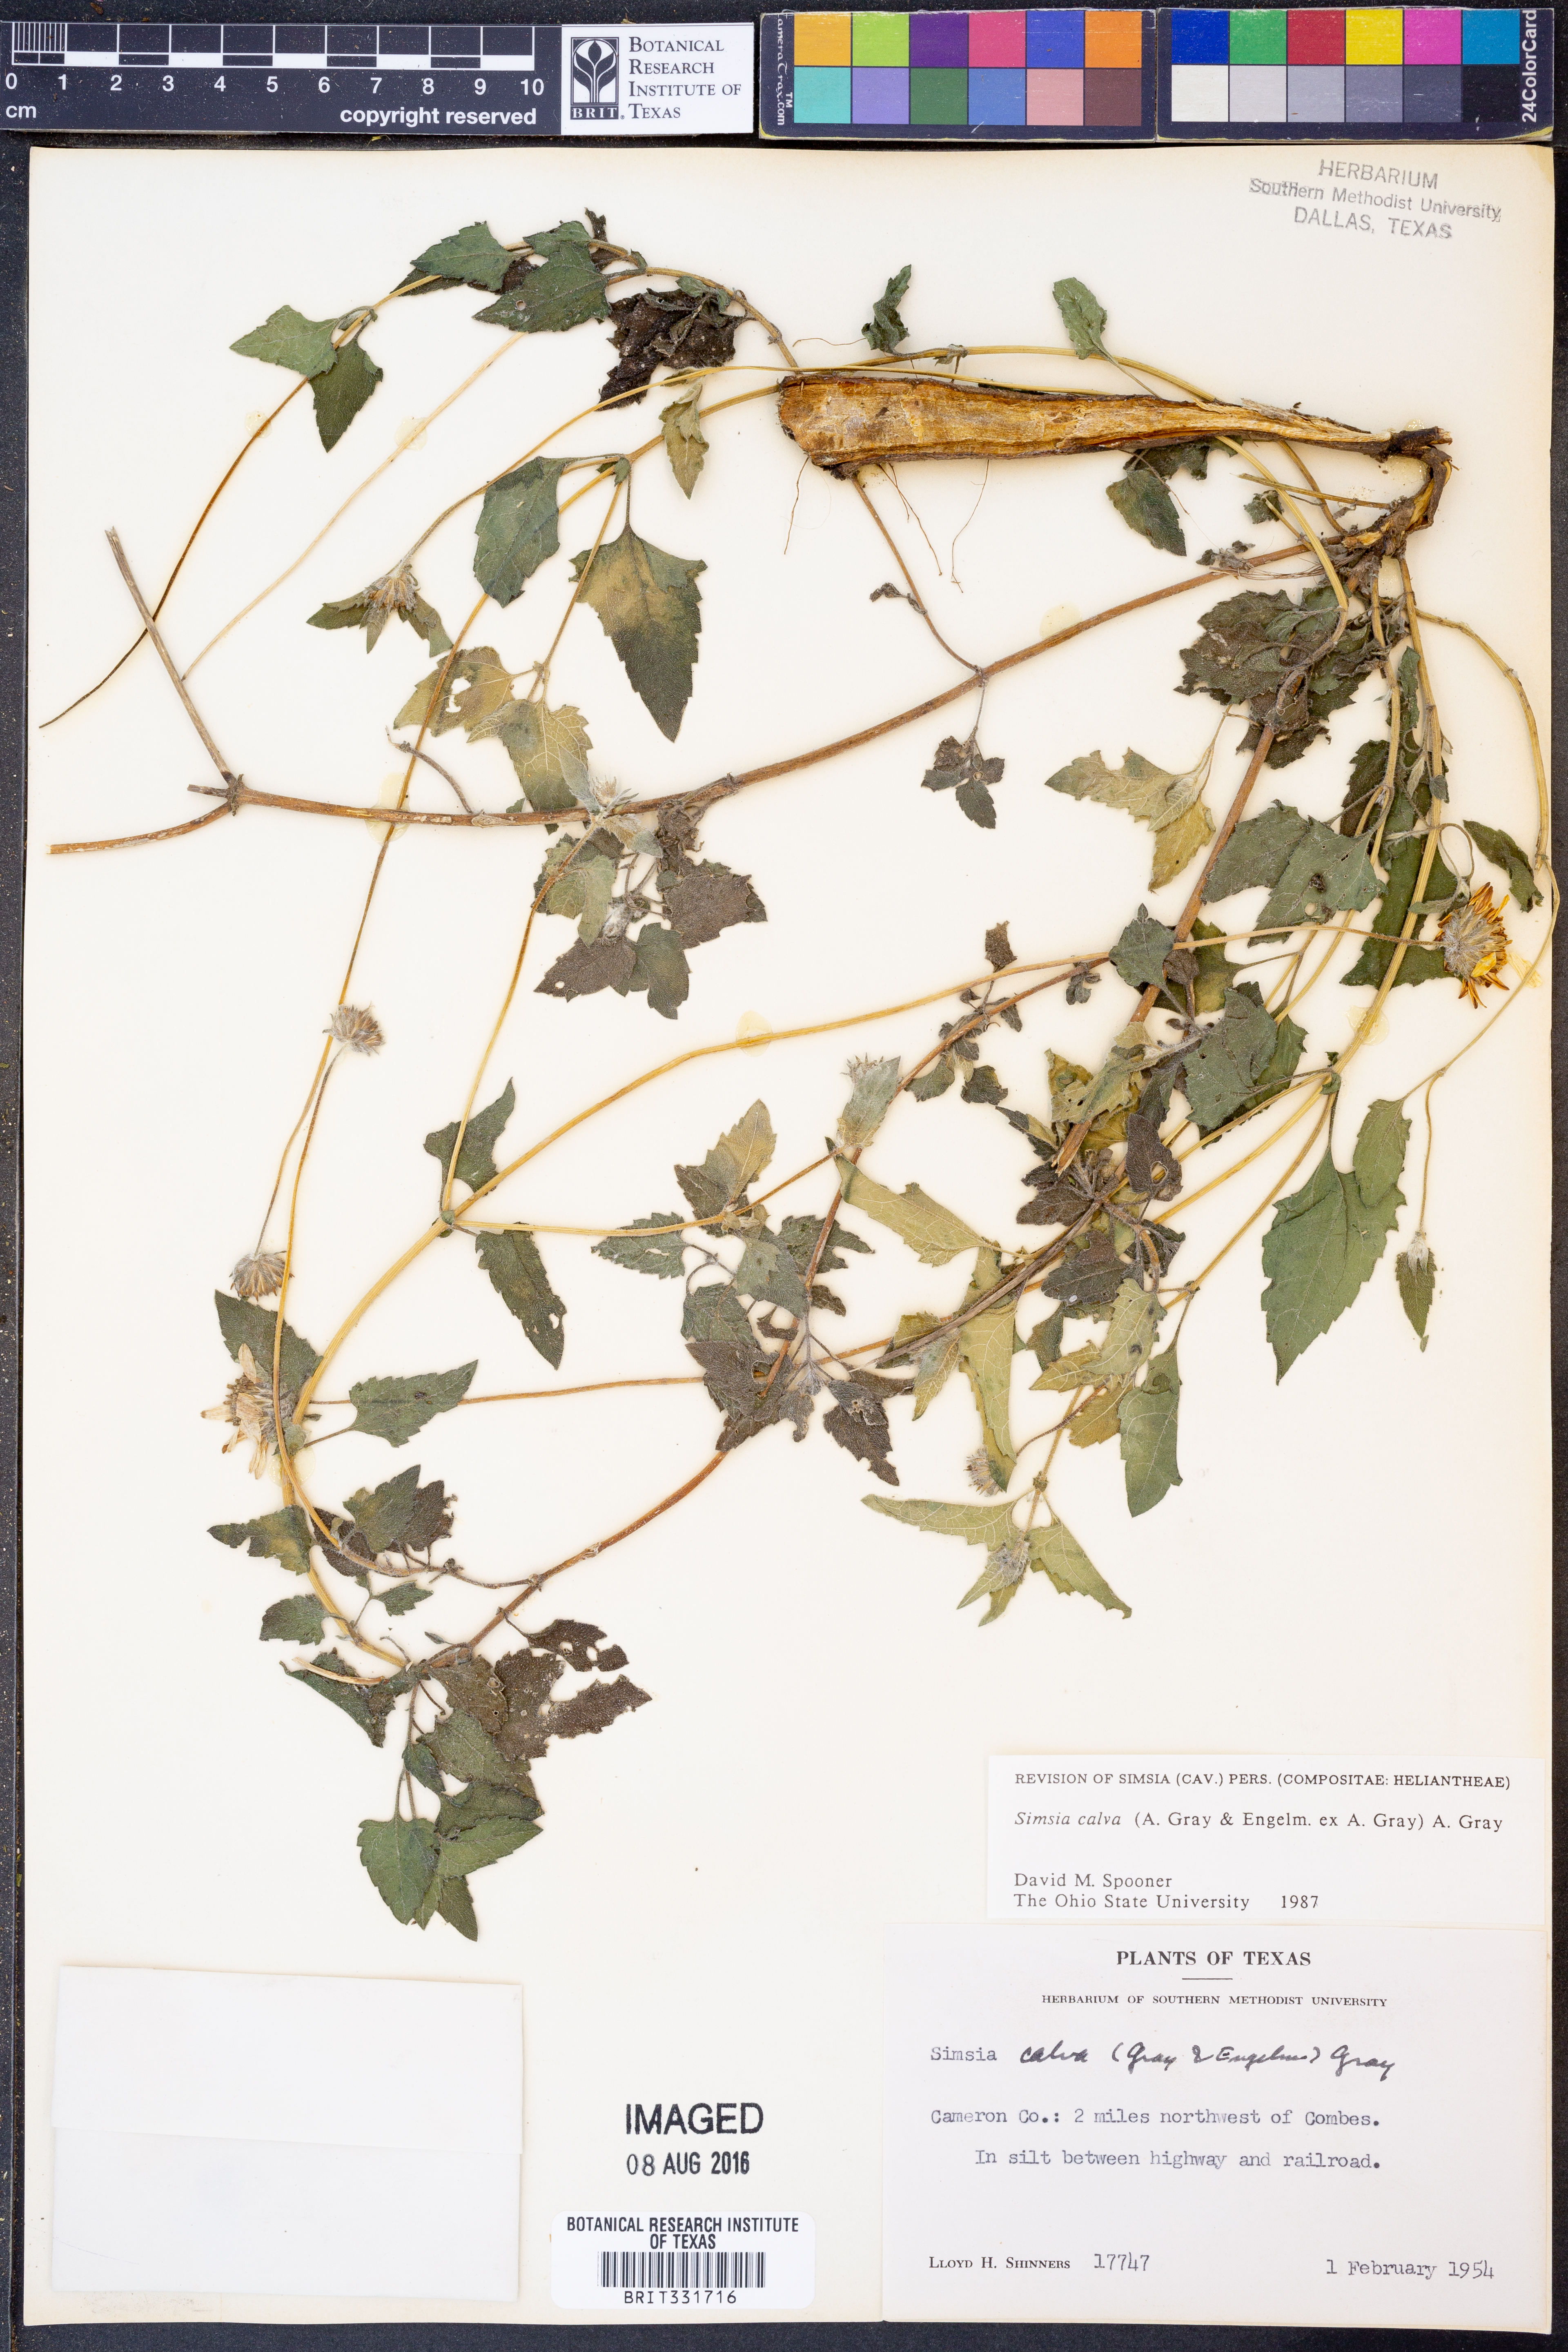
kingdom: Plantae
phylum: Tracheophyta
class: Magnoliopsida
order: Asterales
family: Asteraceae
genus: Simsia
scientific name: Simsia calva
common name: Awnless bush-sunflower
